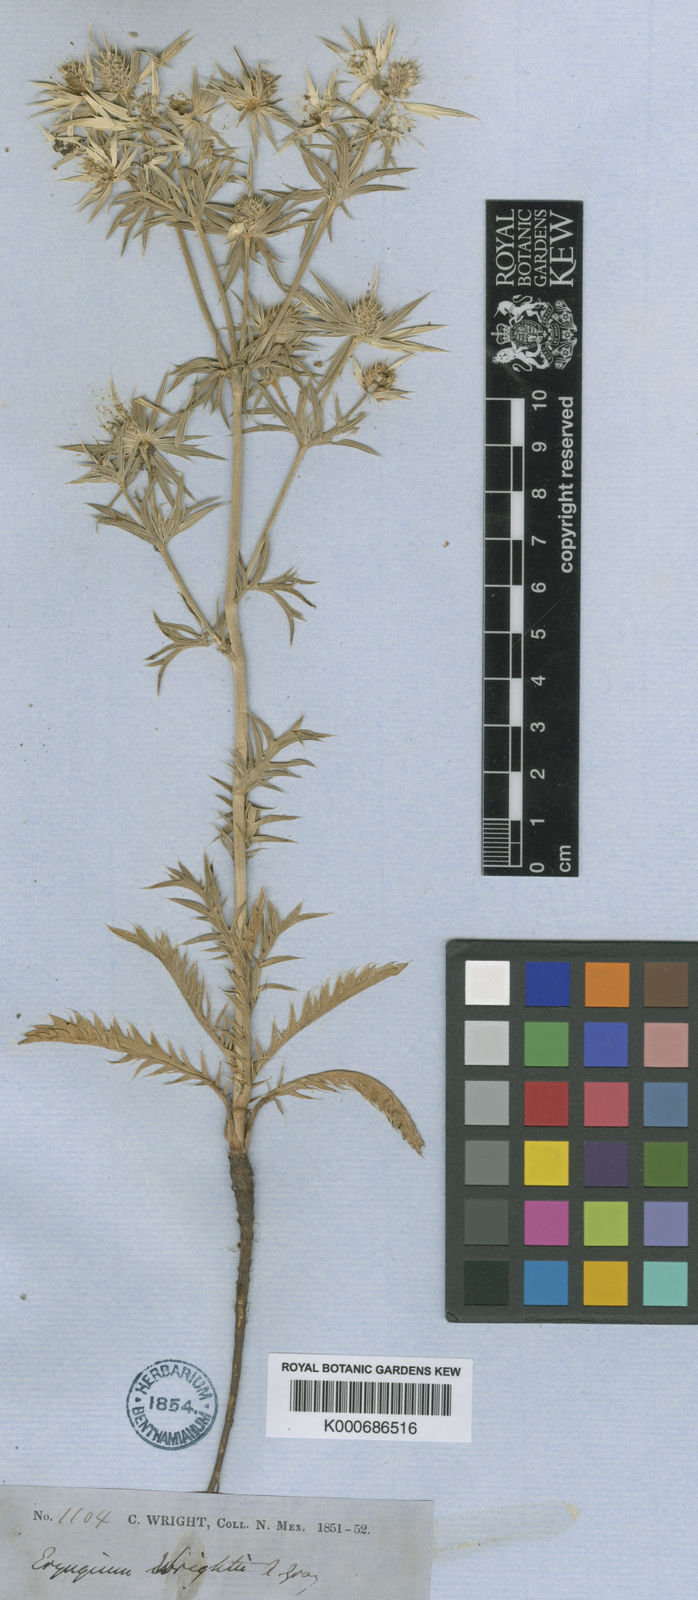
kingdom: Plantae
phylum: Tracheophyta
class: Magnoliopsida
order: Apiales
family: Apiaceae
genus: Eryngium
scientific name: Eryngium heterophyllum
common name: Mexican thistle
